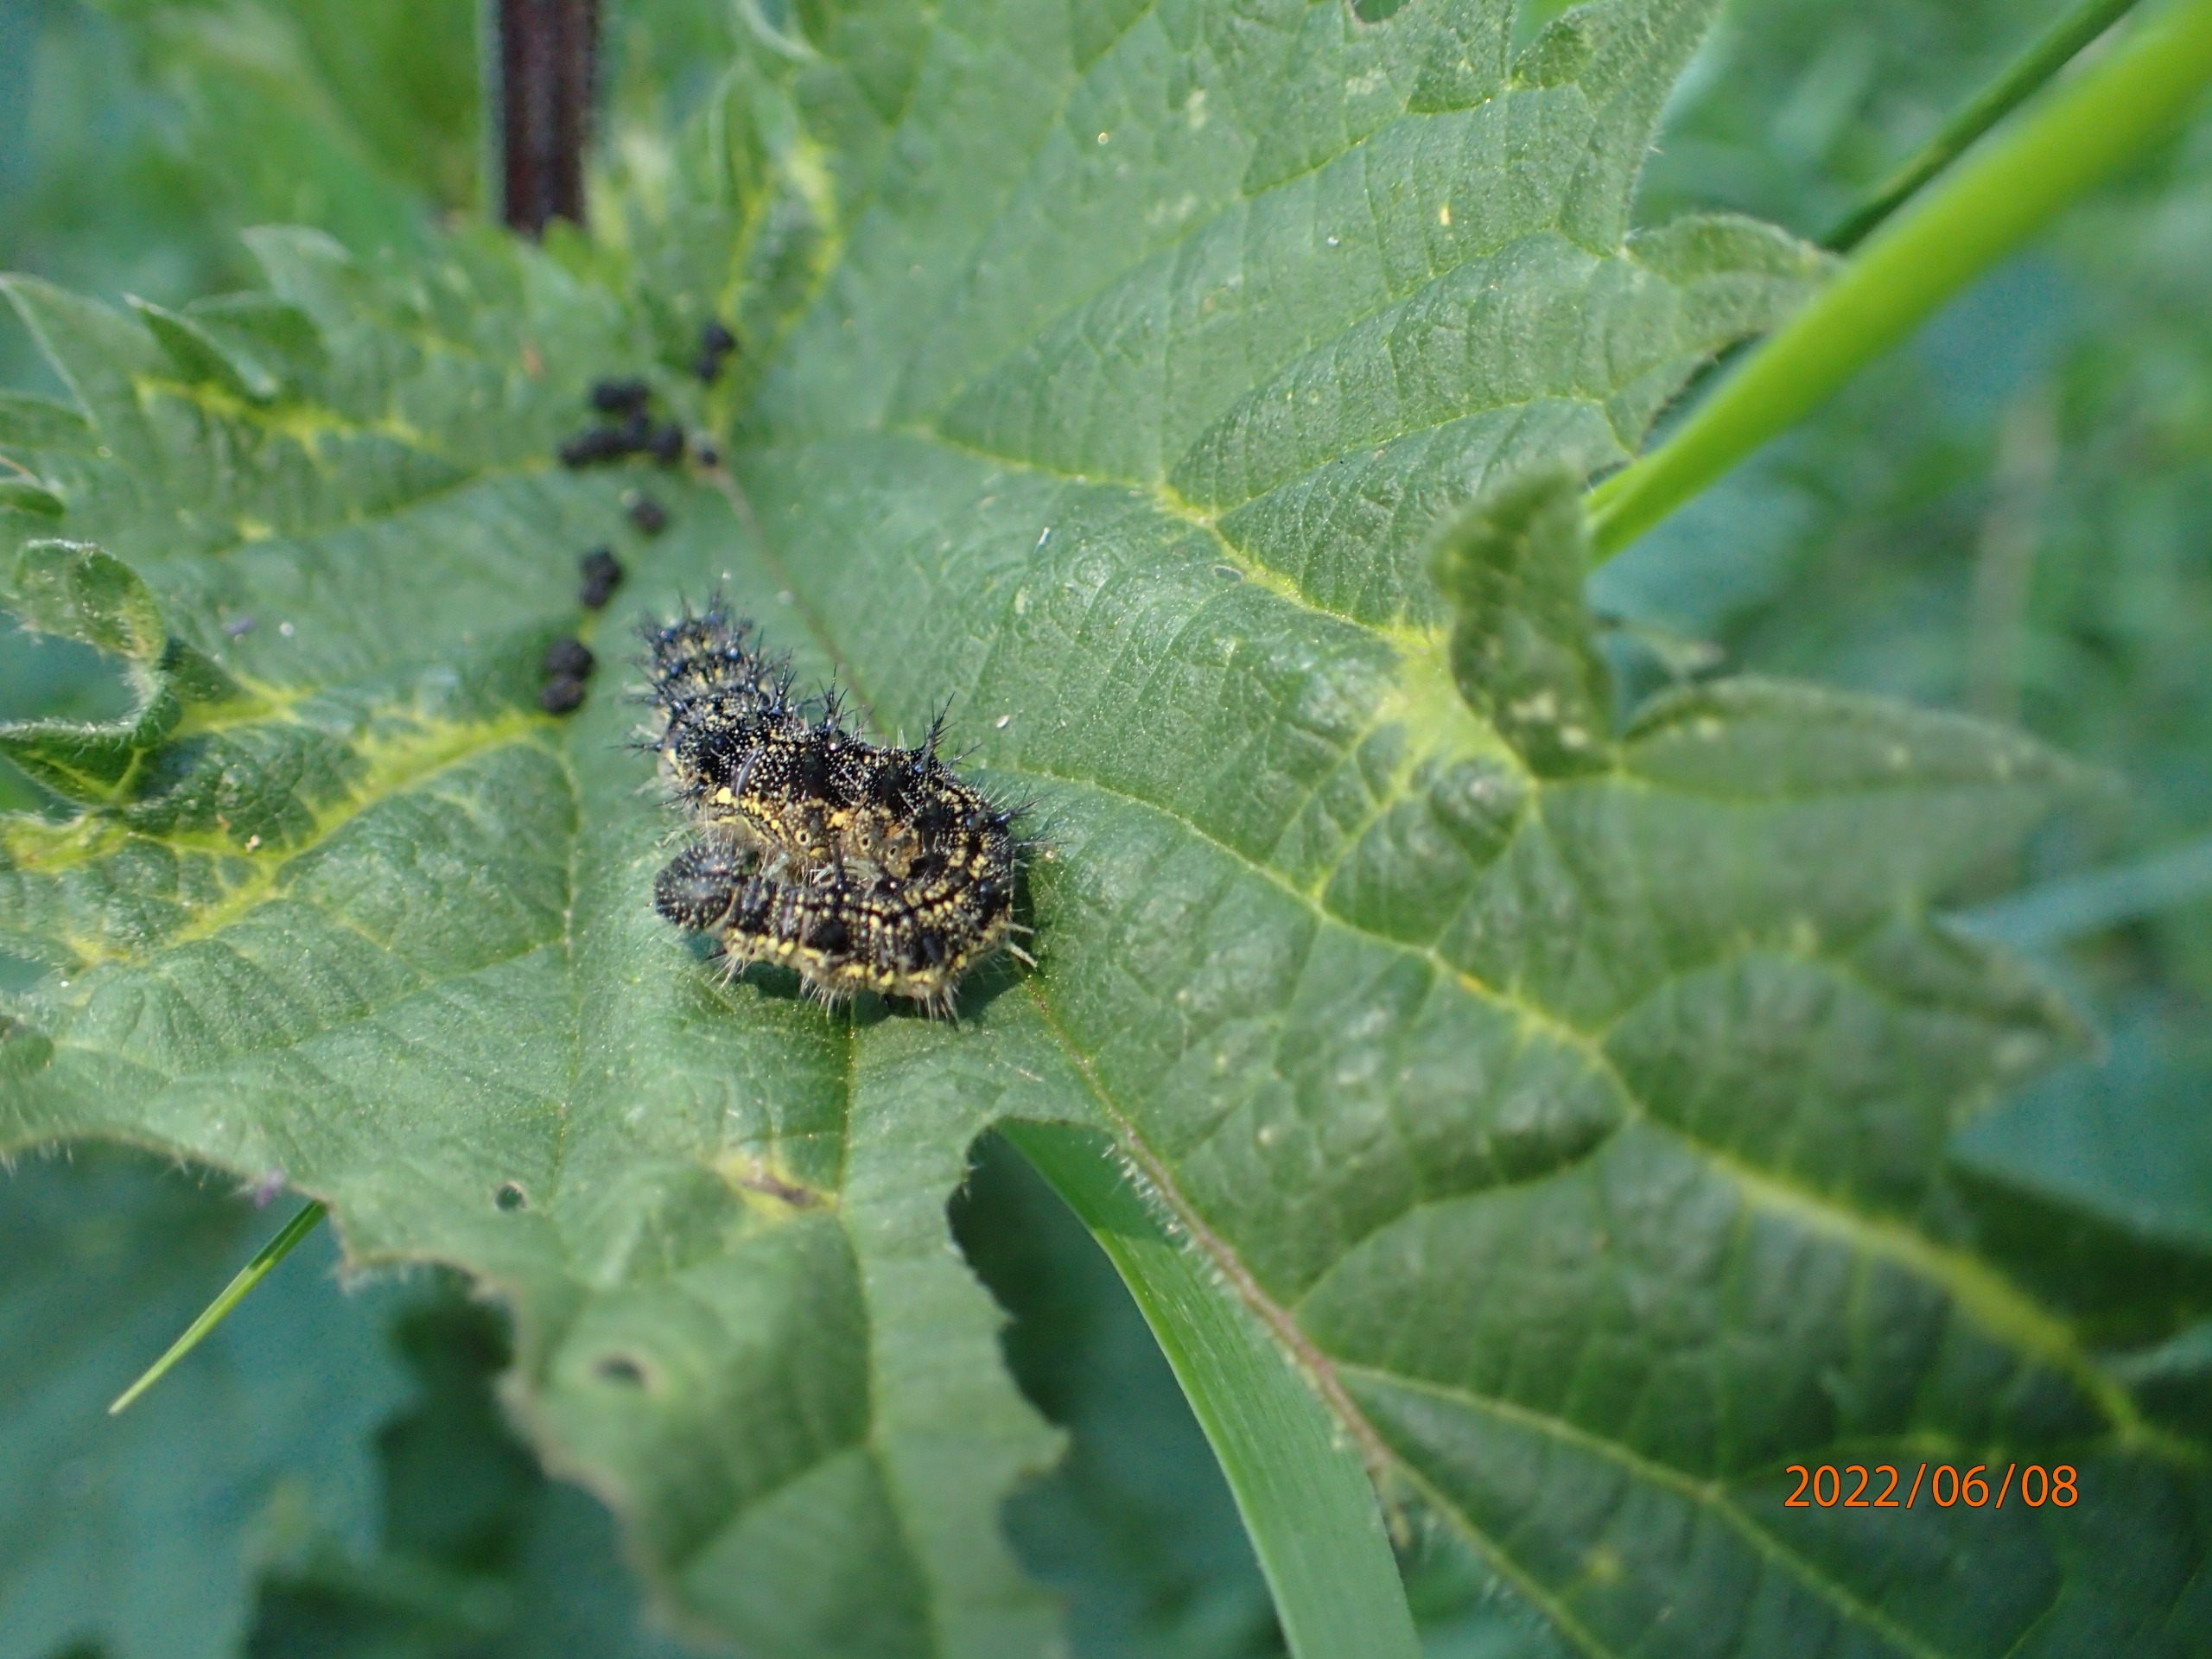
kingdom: Animalia
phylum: Arthropoda
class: Insecta
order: Lepidoptera
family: Nymphalidae
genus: Aglais
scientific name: Aglais urticae
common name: Nældens takvinge
